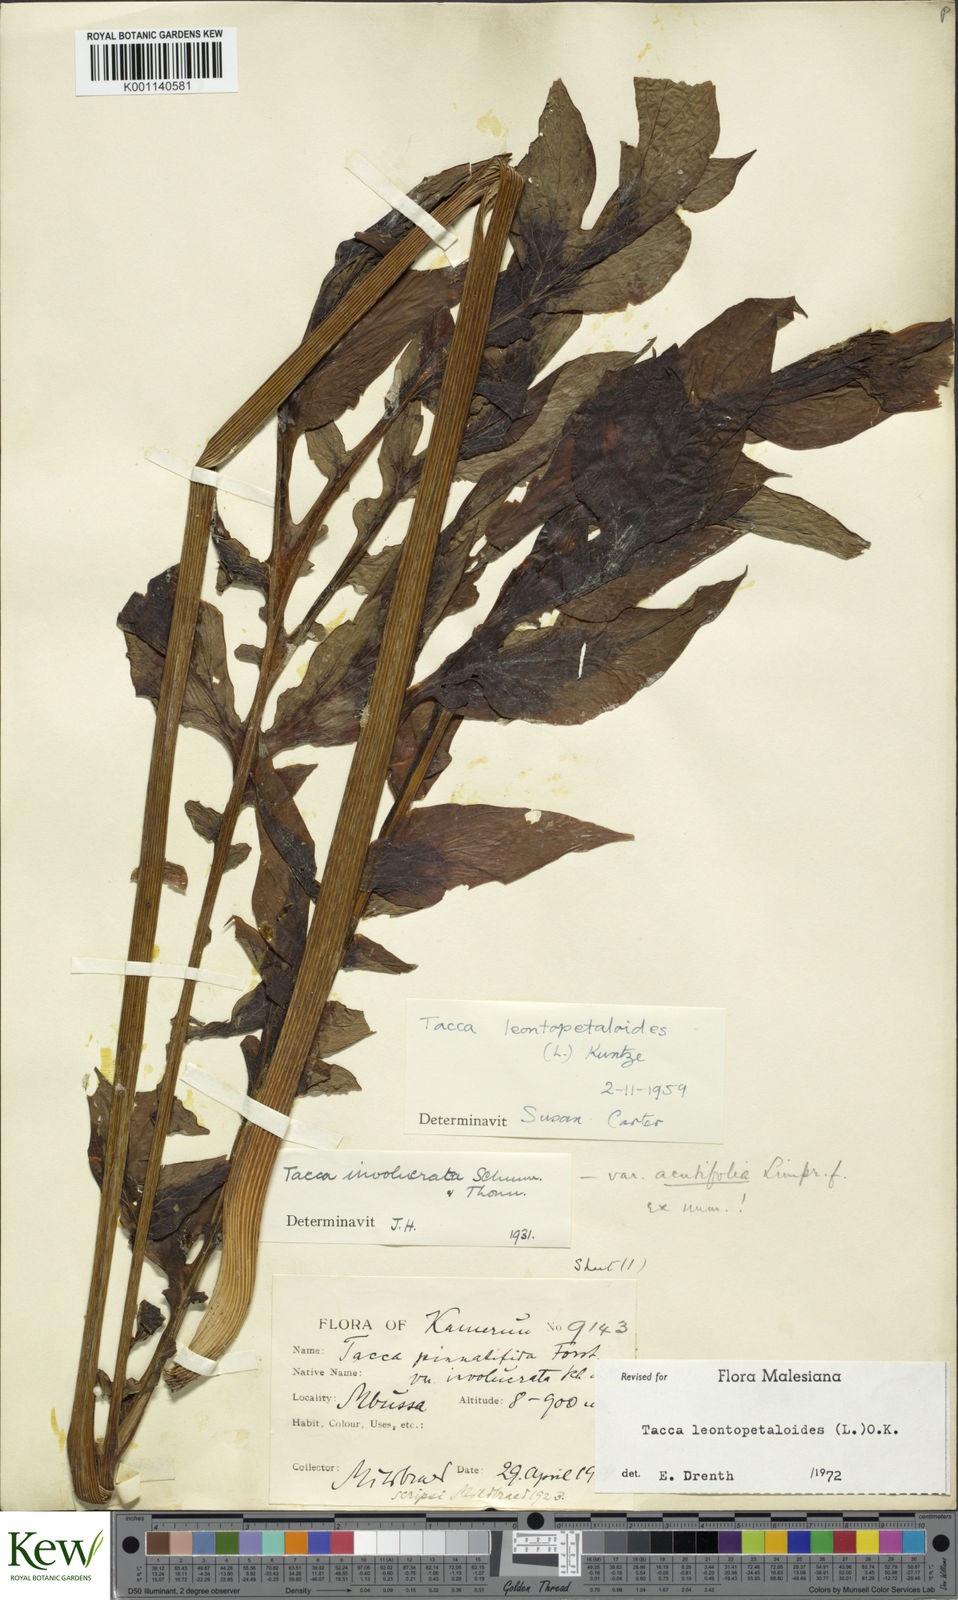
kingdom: Plantae
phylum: Tracheophyta
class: Liliopsida
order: Dioscoreales
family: Dioscoreaceae
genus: Tacca
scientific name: Tacca leontopetaloides
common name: Arrowroot
